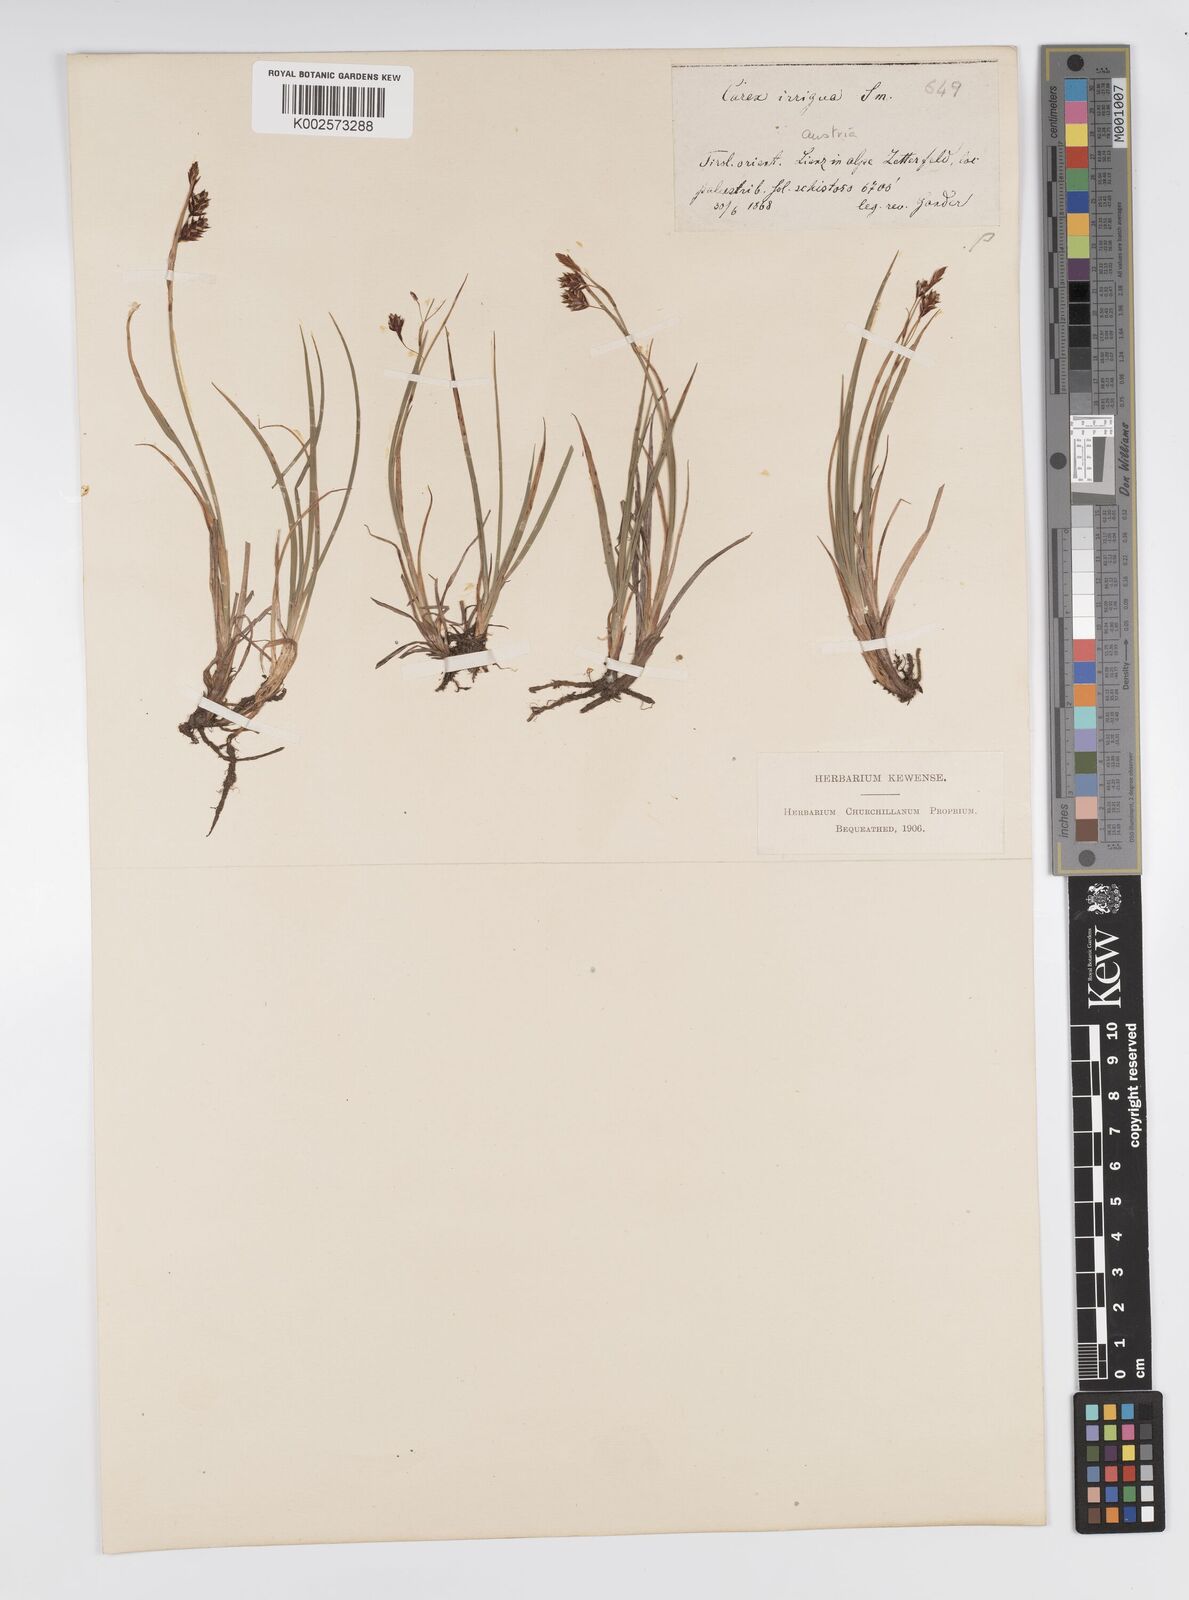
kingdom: Plantae
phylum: Tracheophyta
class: Liliopsida
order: Poales
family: Cyperaceae
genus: Carex
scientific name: Carex magellanica
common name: Bog sedge
